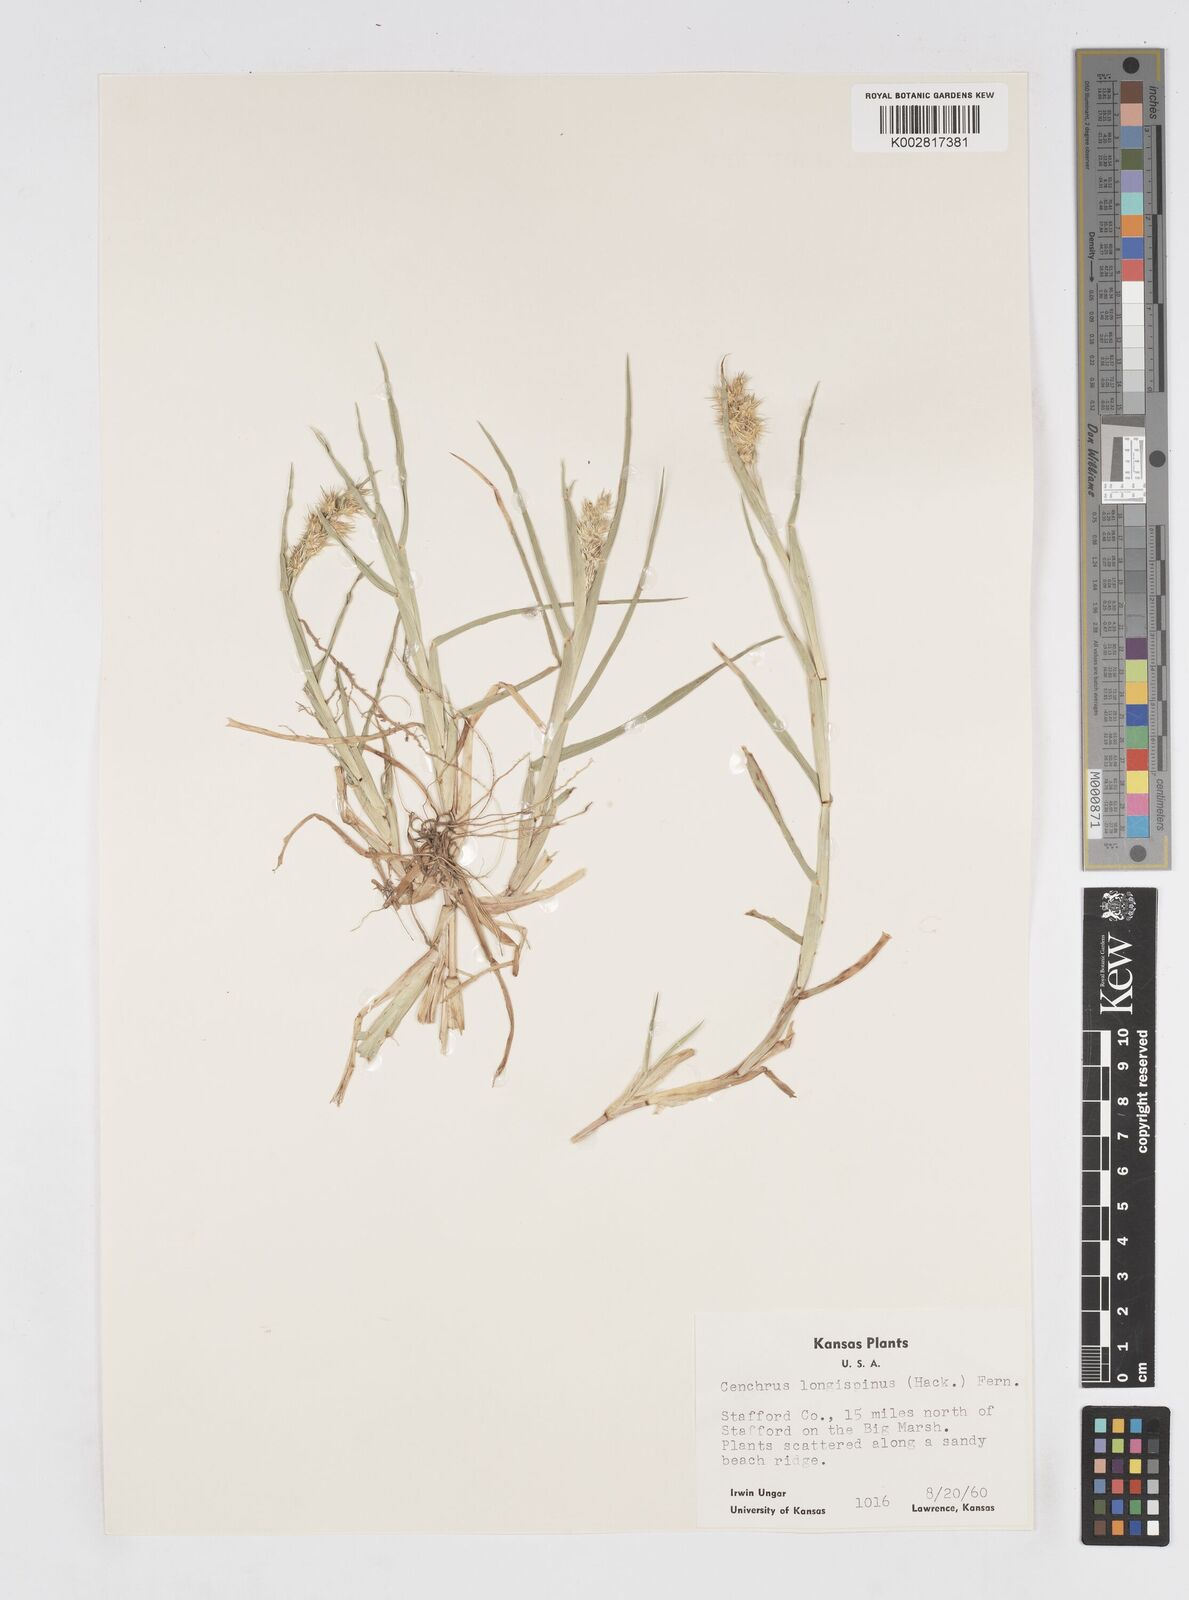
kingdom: Plantae
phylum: Tracheophyta
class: Liliopsida
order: Poales
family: Poaceae
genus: Cenchrus
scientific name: Cenchrus longispinus
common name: Mat sandbur
